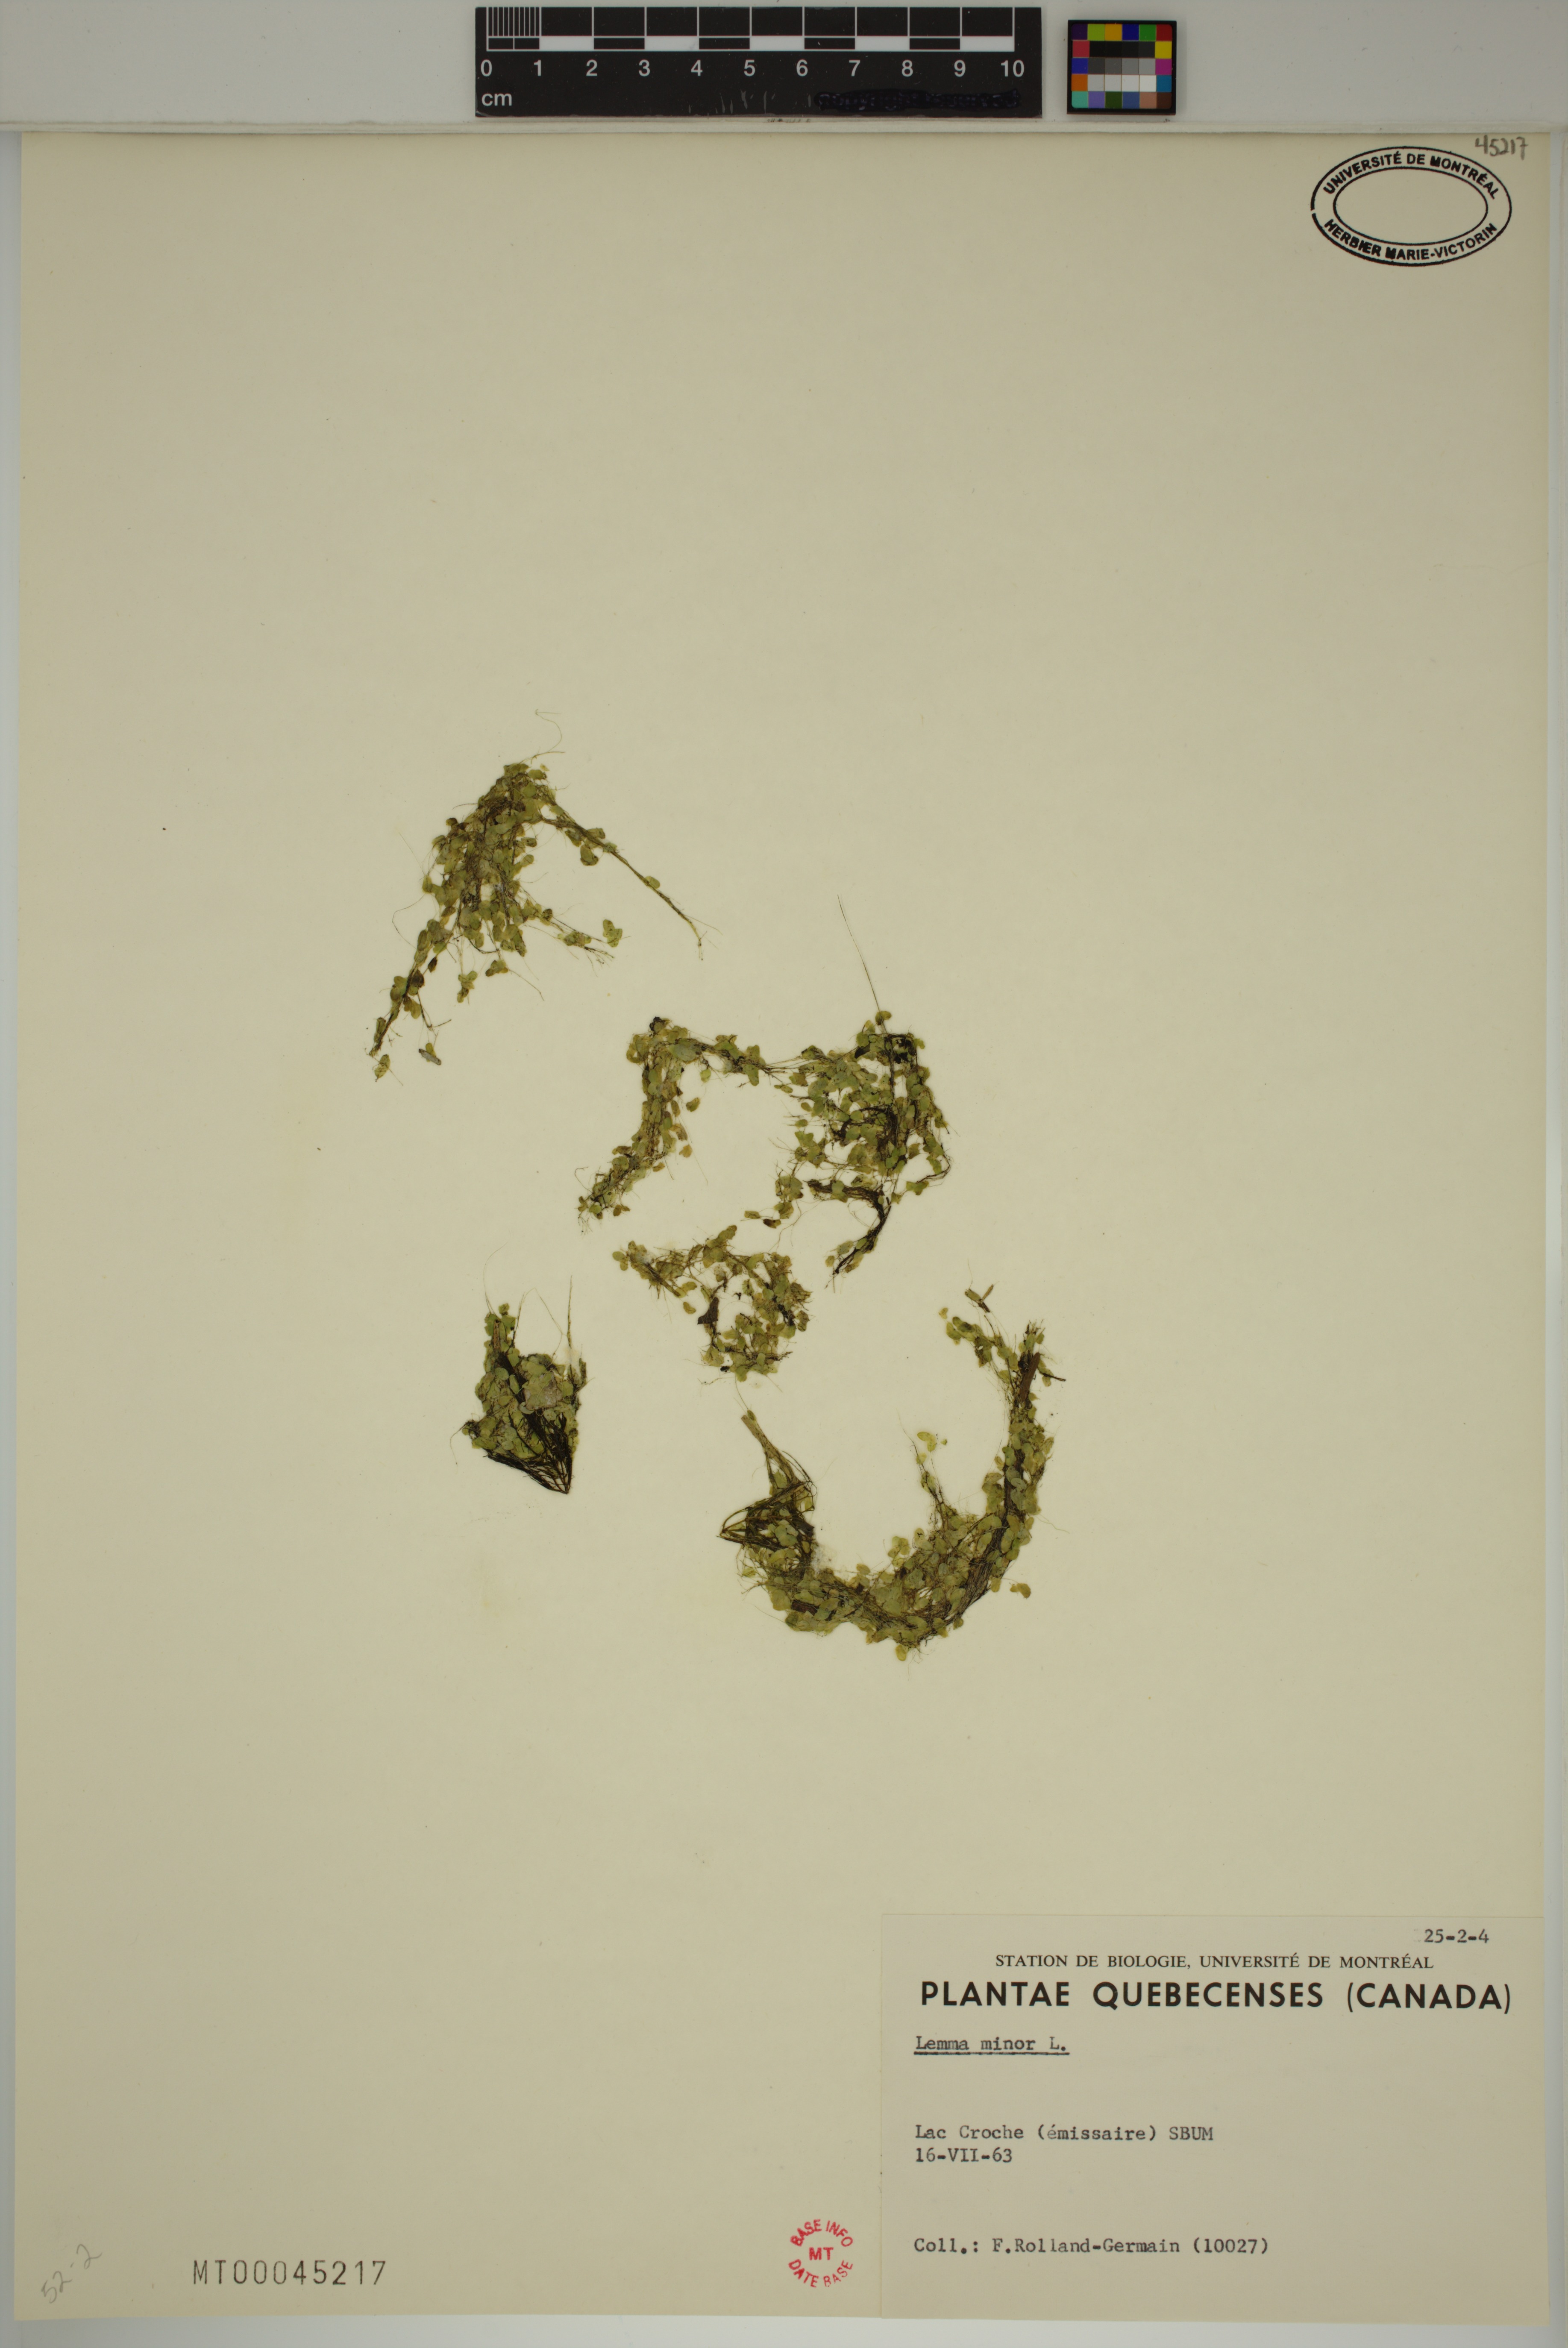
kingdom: Plantae
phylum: Tracheophyta
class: Liliopsida
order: Alismatales
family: Araceae
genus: Lemna
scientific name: Lemna minor
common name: Common duckweed
